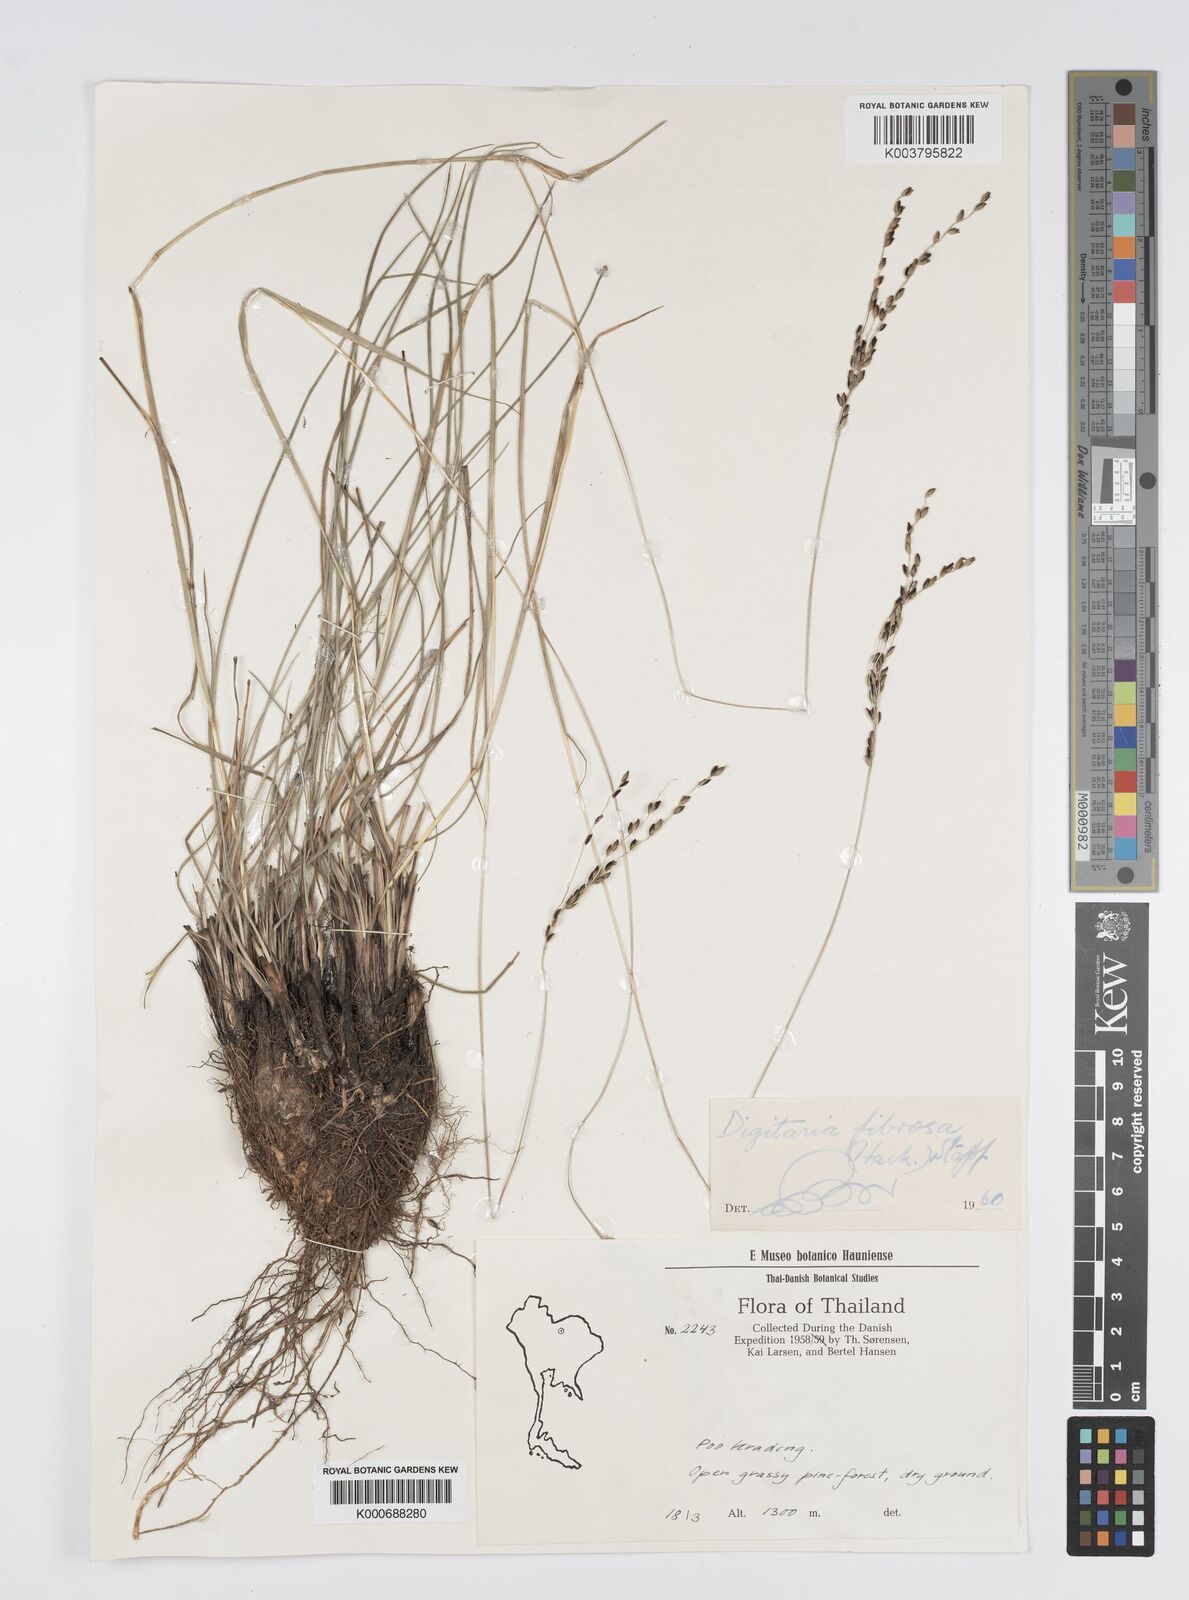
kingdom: Plantae
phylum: Tracheophyta
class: Liliopsida
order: Poales
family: Poaceae
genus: Digitaria
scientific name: Digitaria setifolia
